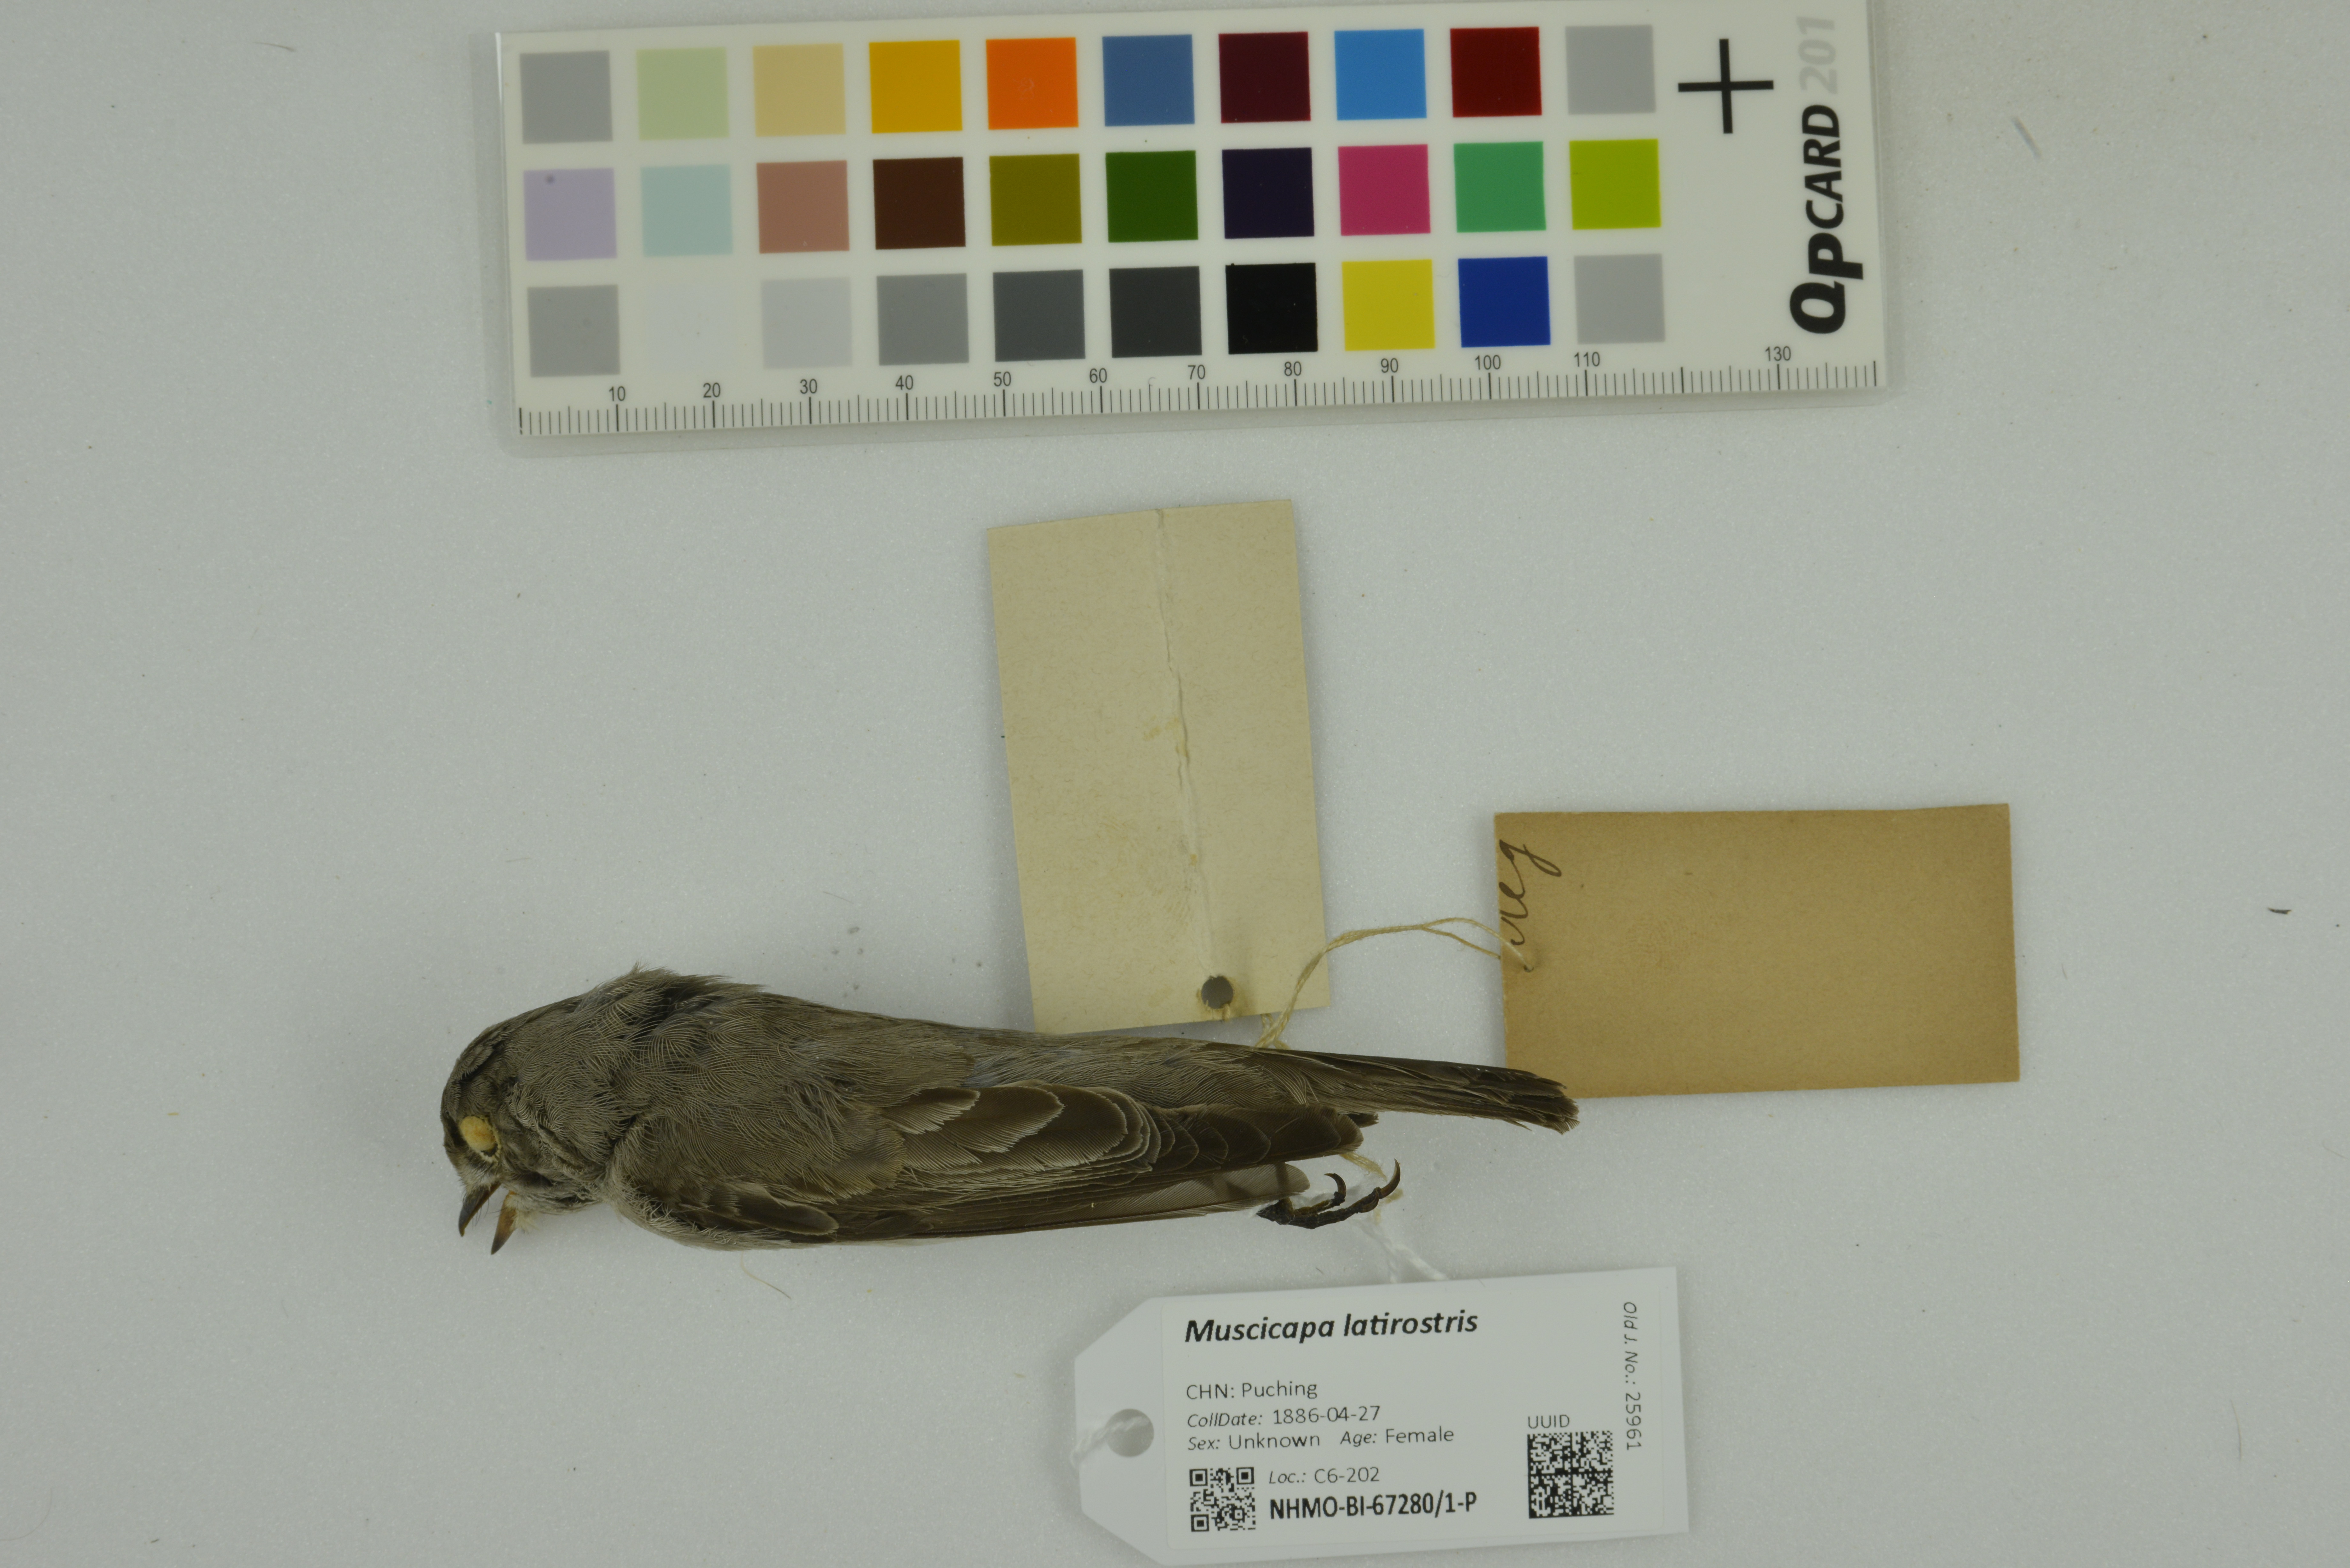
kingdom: Animalia
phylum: Chordata
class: Aves
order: Passeriformes
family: Muscicapidae
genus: Muscicapa
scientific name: Muscicapa latirostris
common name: Asian brown flycatcher
